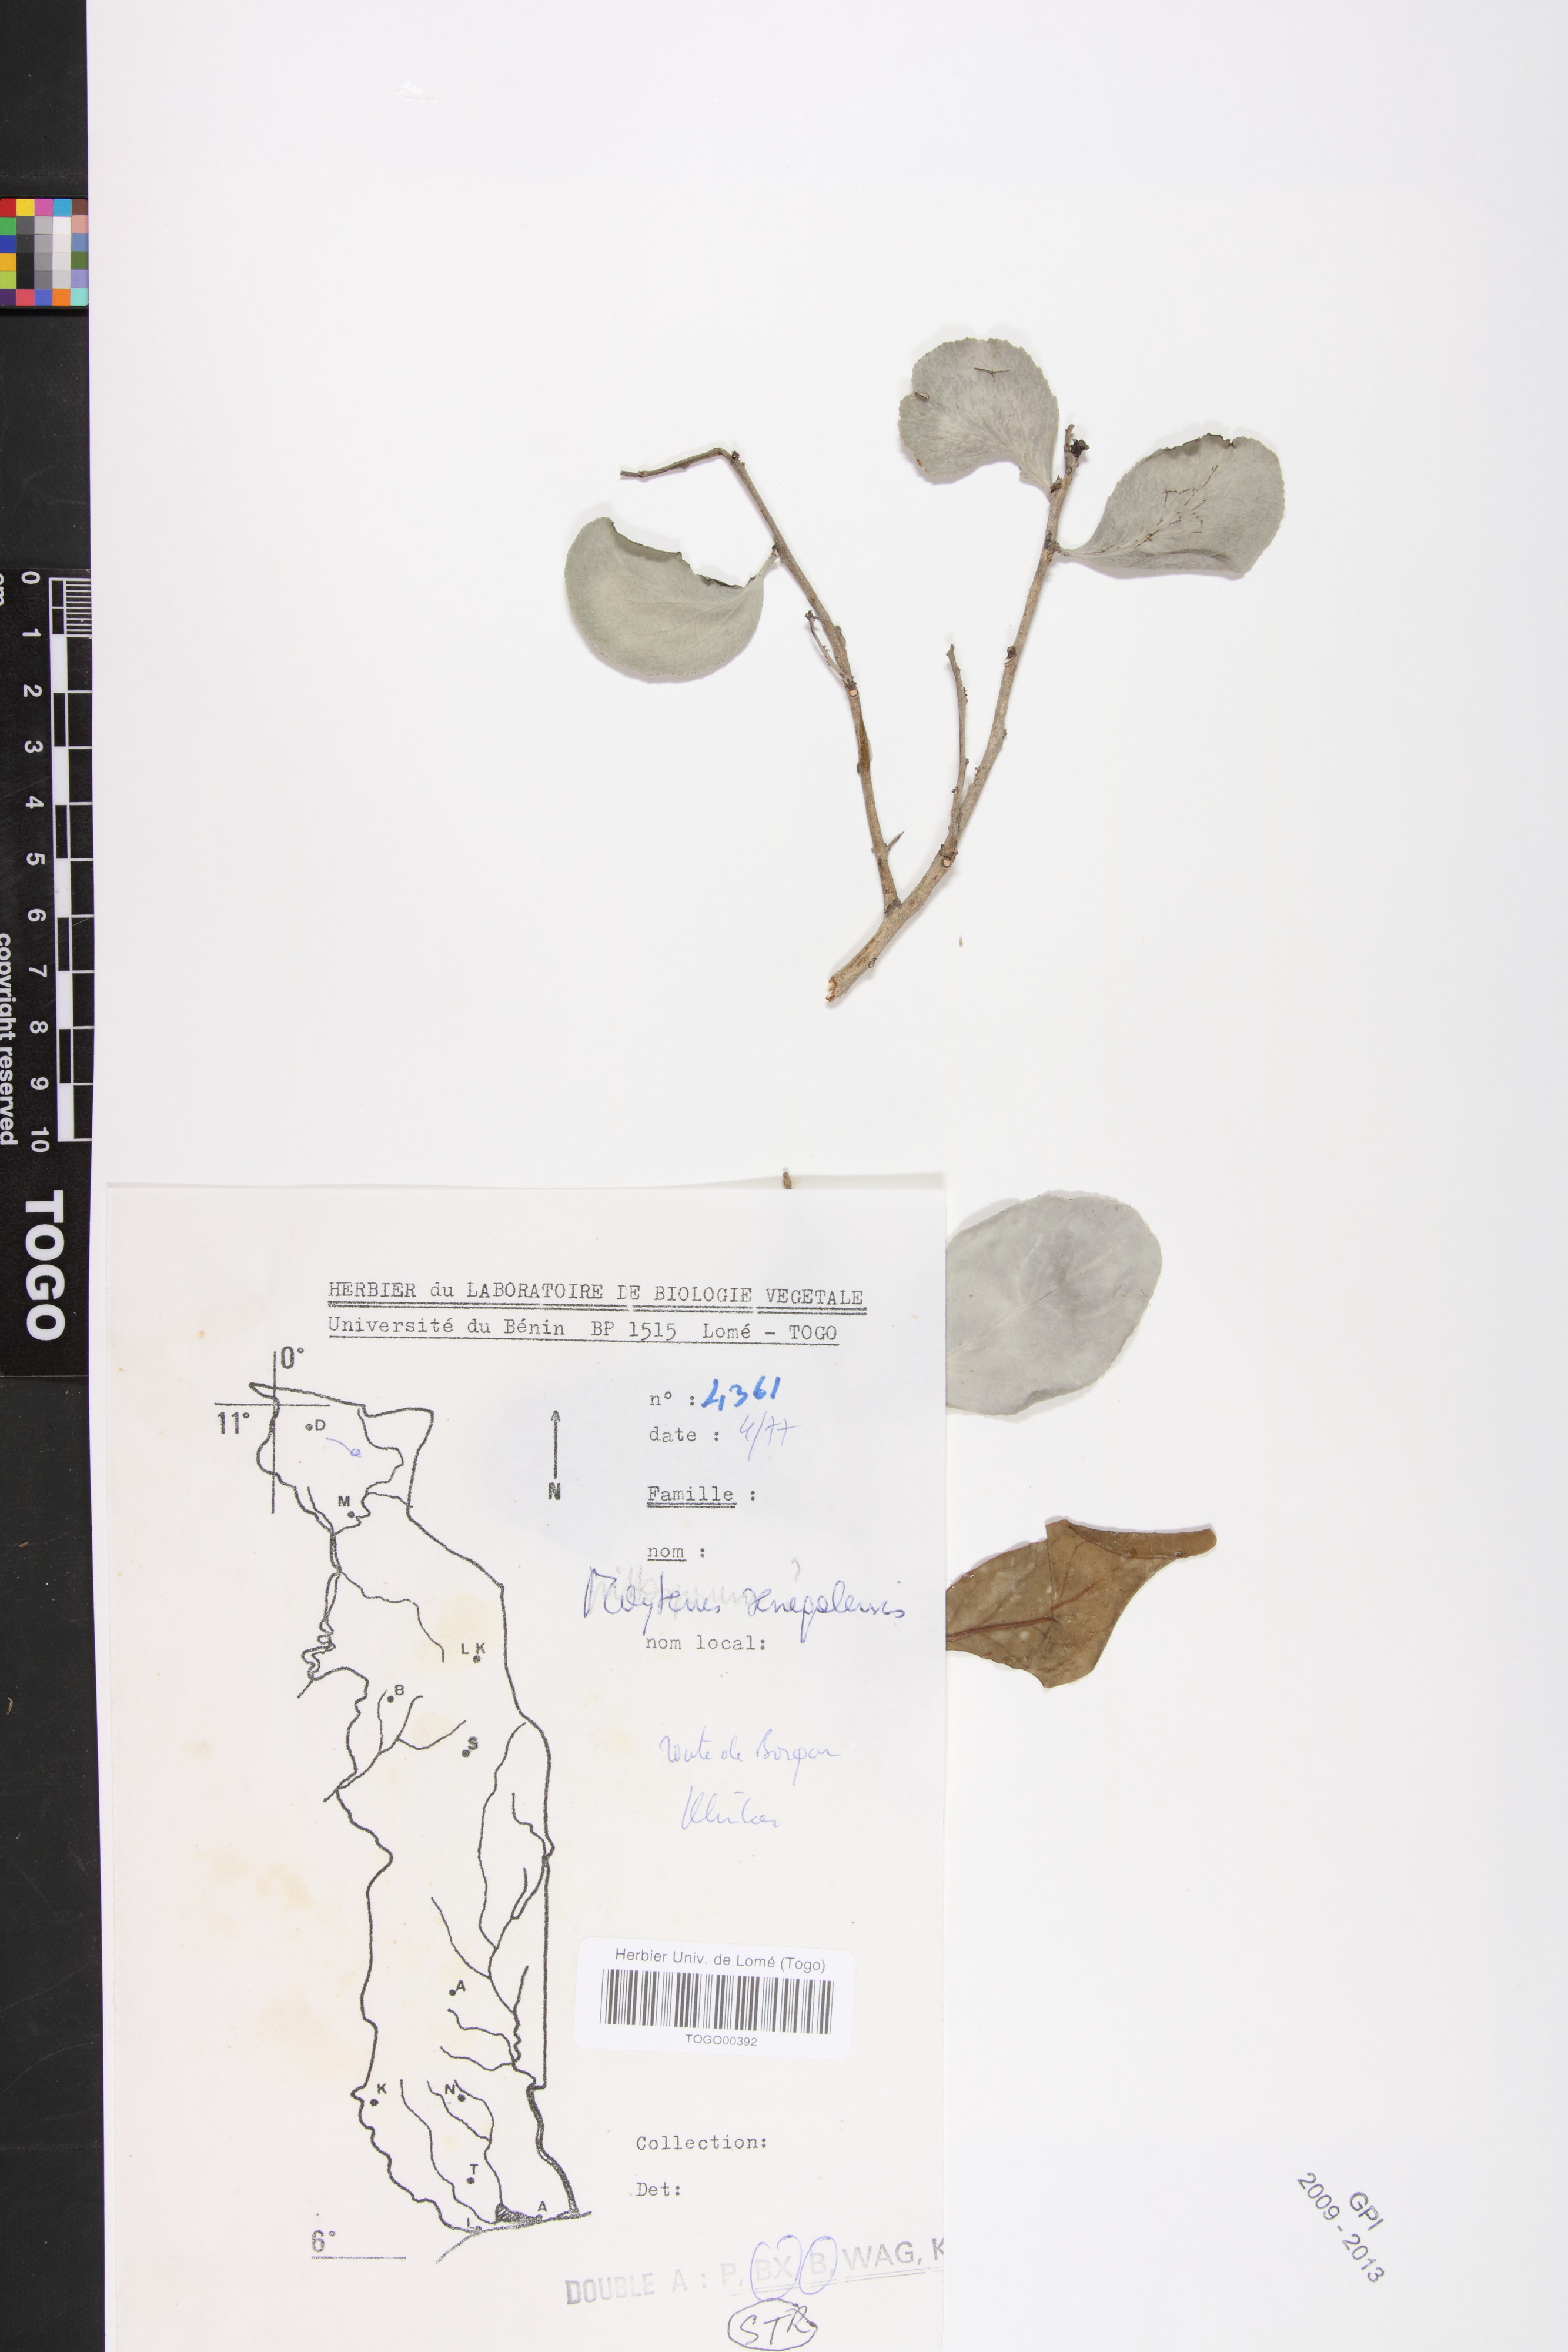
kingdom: Plantae
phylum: Tracheophyta
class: Magnoliopsida
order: Celastrales
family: Celastraceae
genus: Gymnosporia
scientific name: Gymnosporia senegalensis
